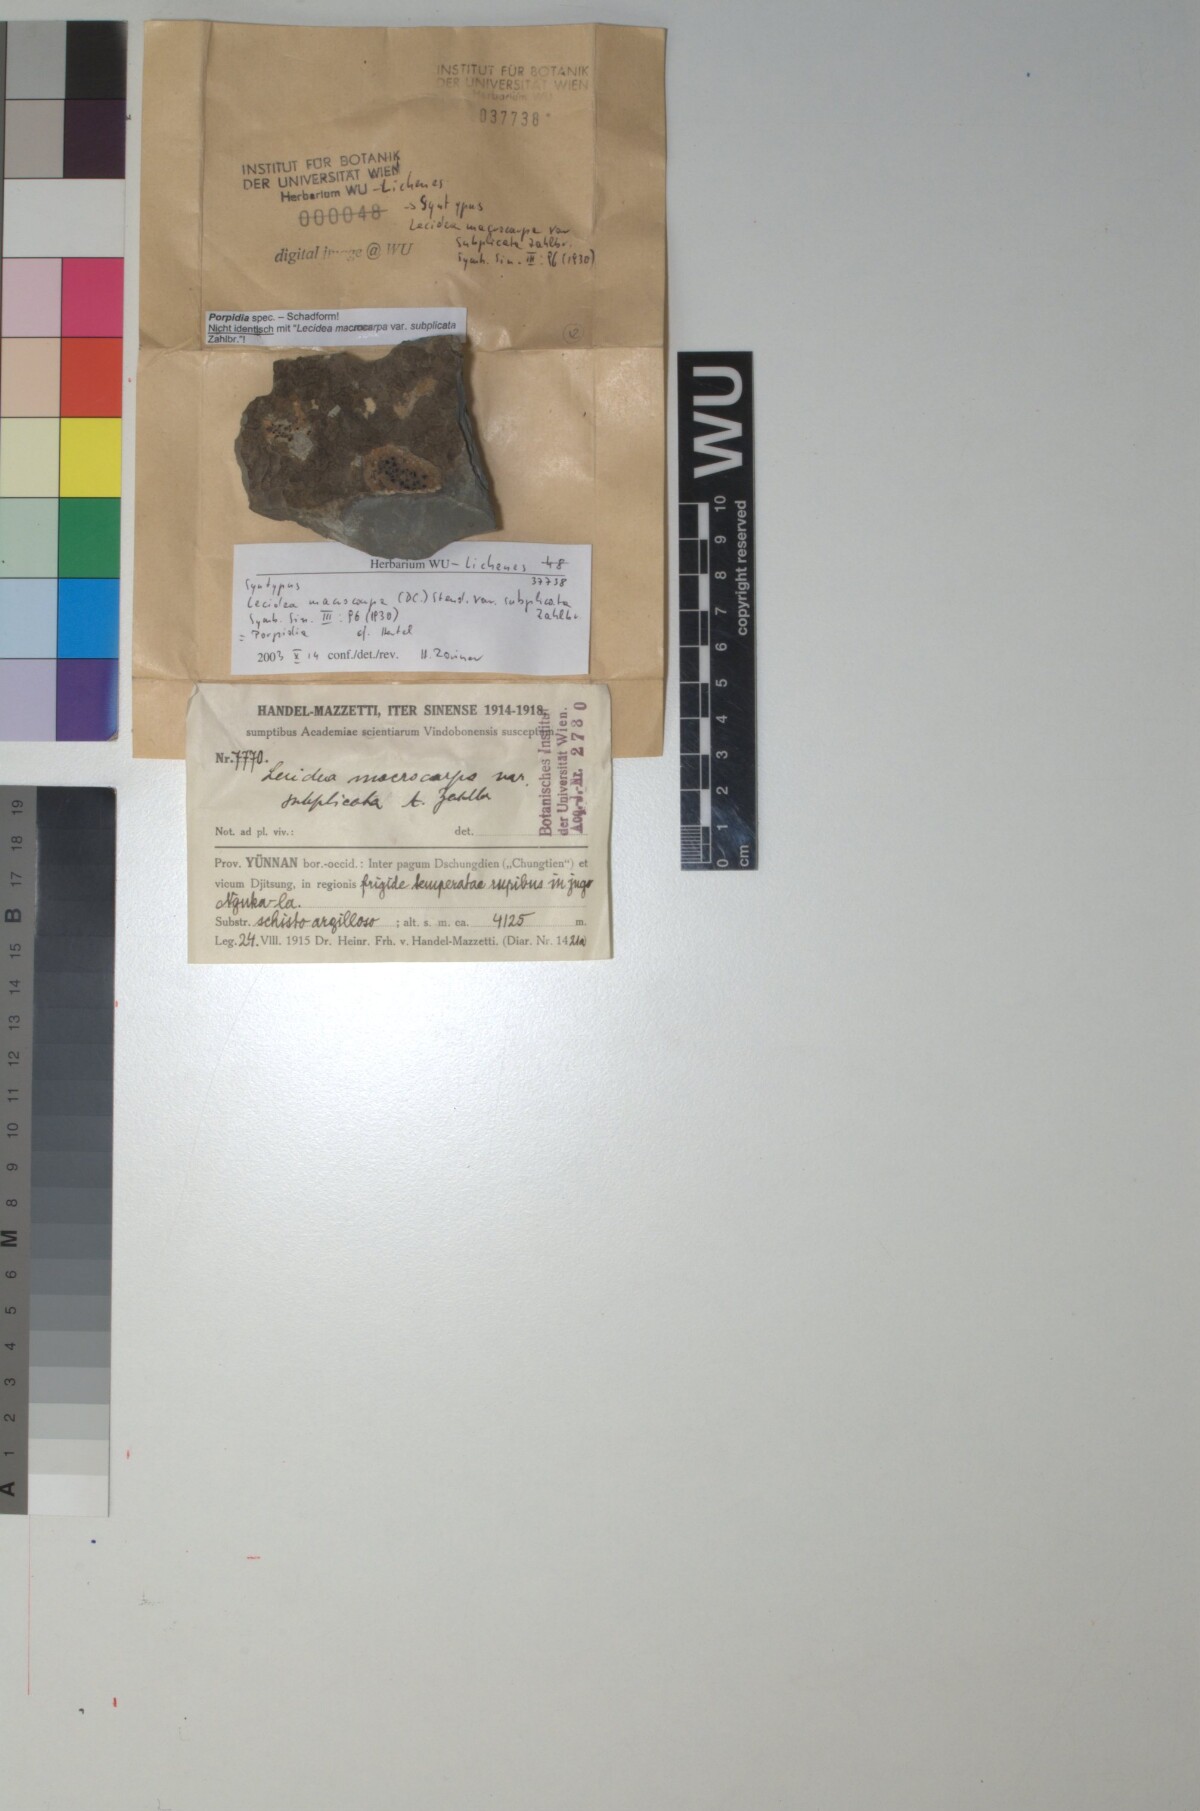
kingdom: Fungi
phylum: Ascomycota
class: Lecanoromycetes
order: Lecideales
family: Lecideaceae
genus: Porpidia
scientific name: Porpidia macrocarpa
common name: Common boulder lichen
